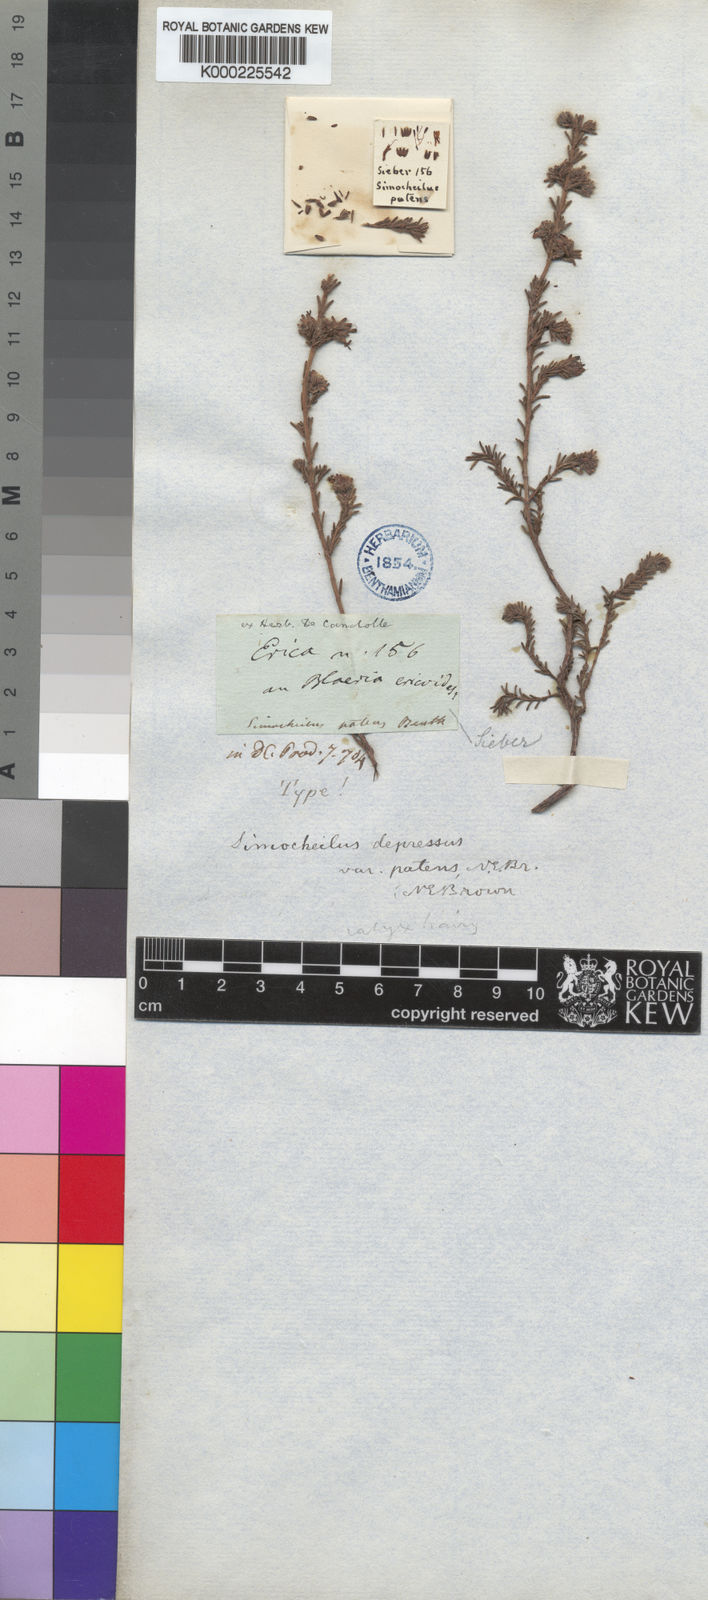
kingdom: Plantae
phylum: Tracheophyta
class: Magnoliopsida
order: Ericales
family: Ericaceae
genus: Erica
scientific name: Erica glabella
